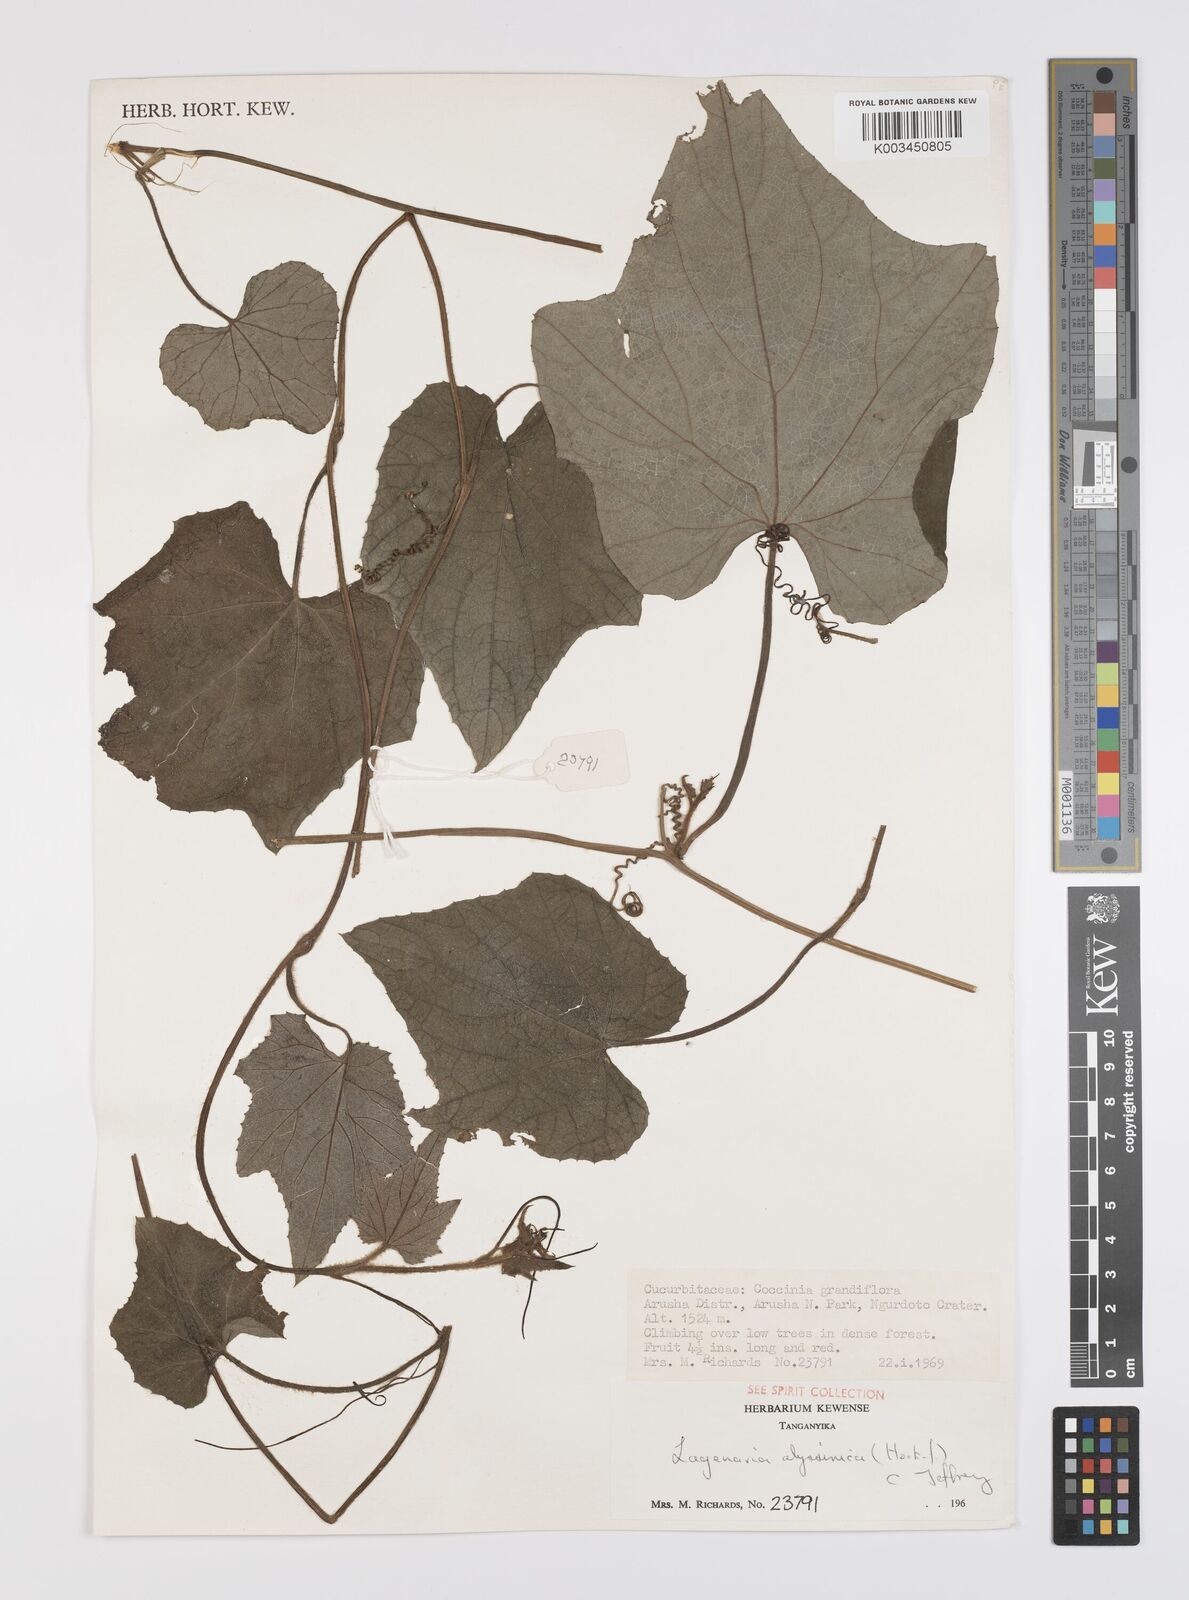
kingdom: Plantae
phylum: Tracheophyta
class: Magnoliopsida
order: Cucurbitales
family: Cucurbitaceae
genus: Lagenaria
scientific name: Lagenaria abyssinica
